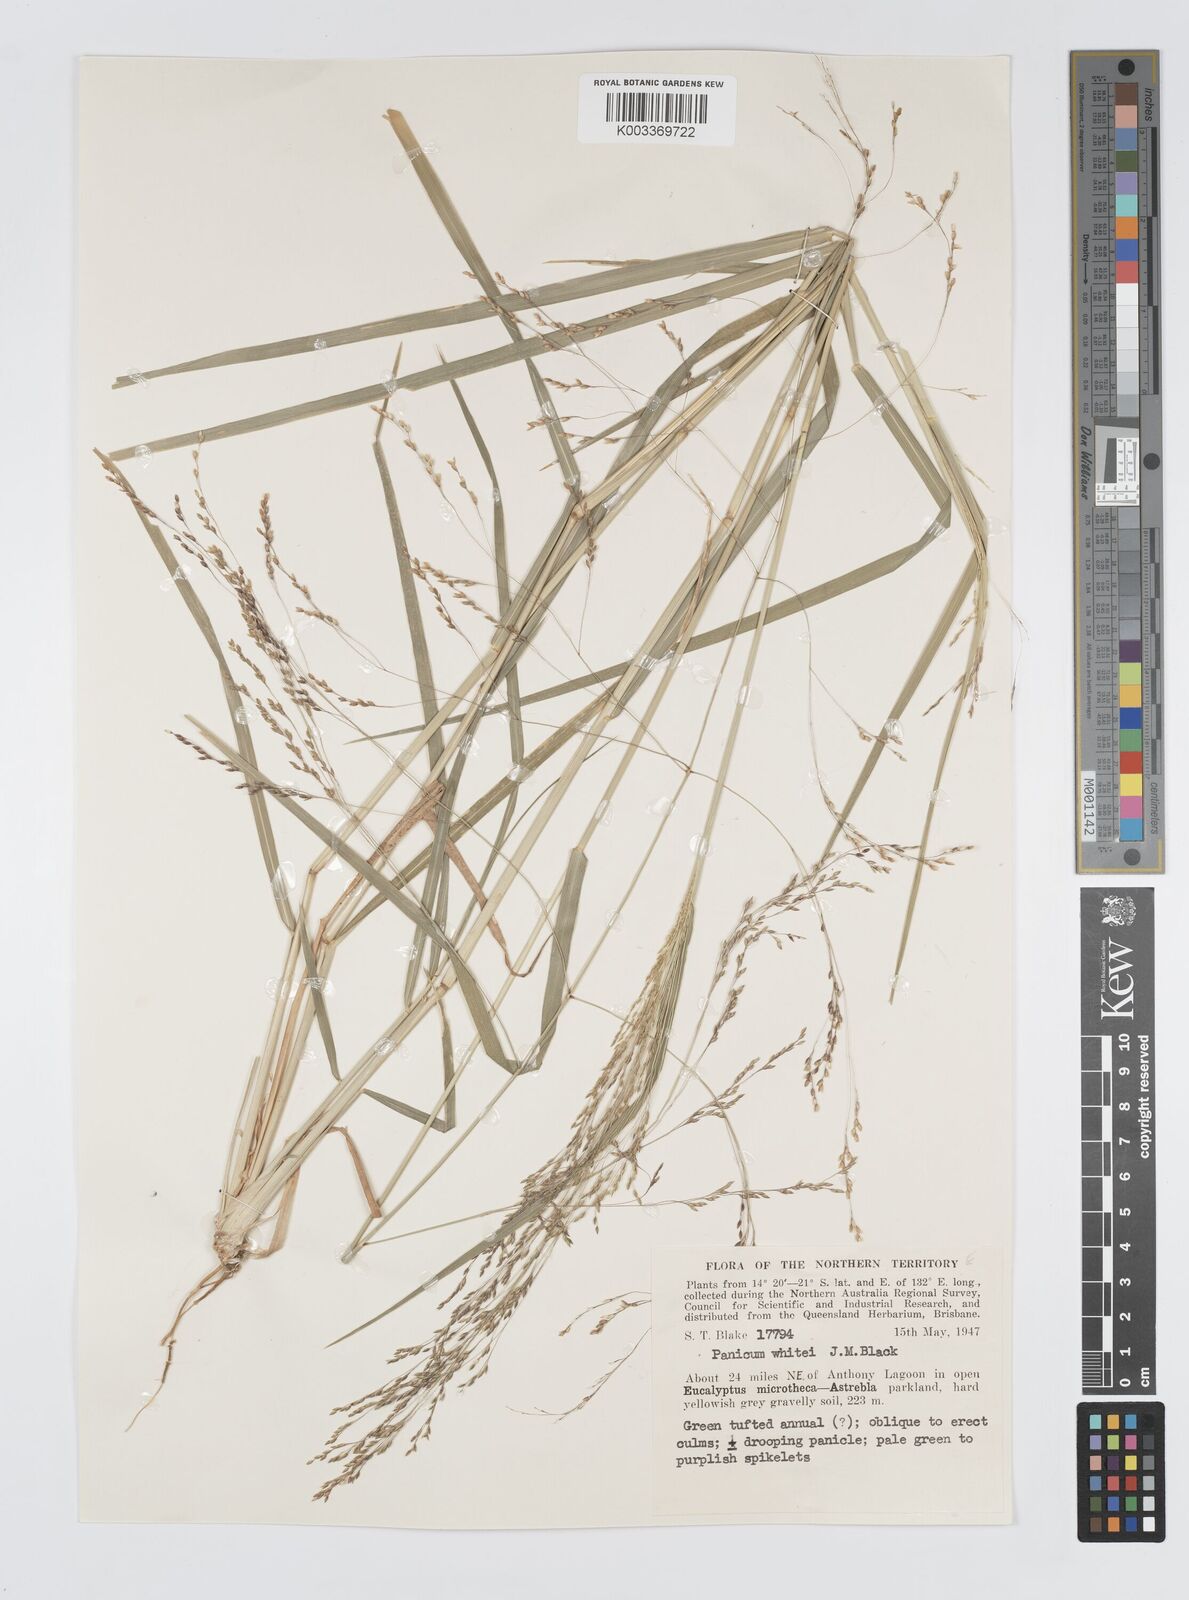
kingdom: Plantae
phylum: Tracheophyta
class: Liliopsida
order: Poales
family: Poaceae
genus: Panicum
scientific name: Panicum laevinode
